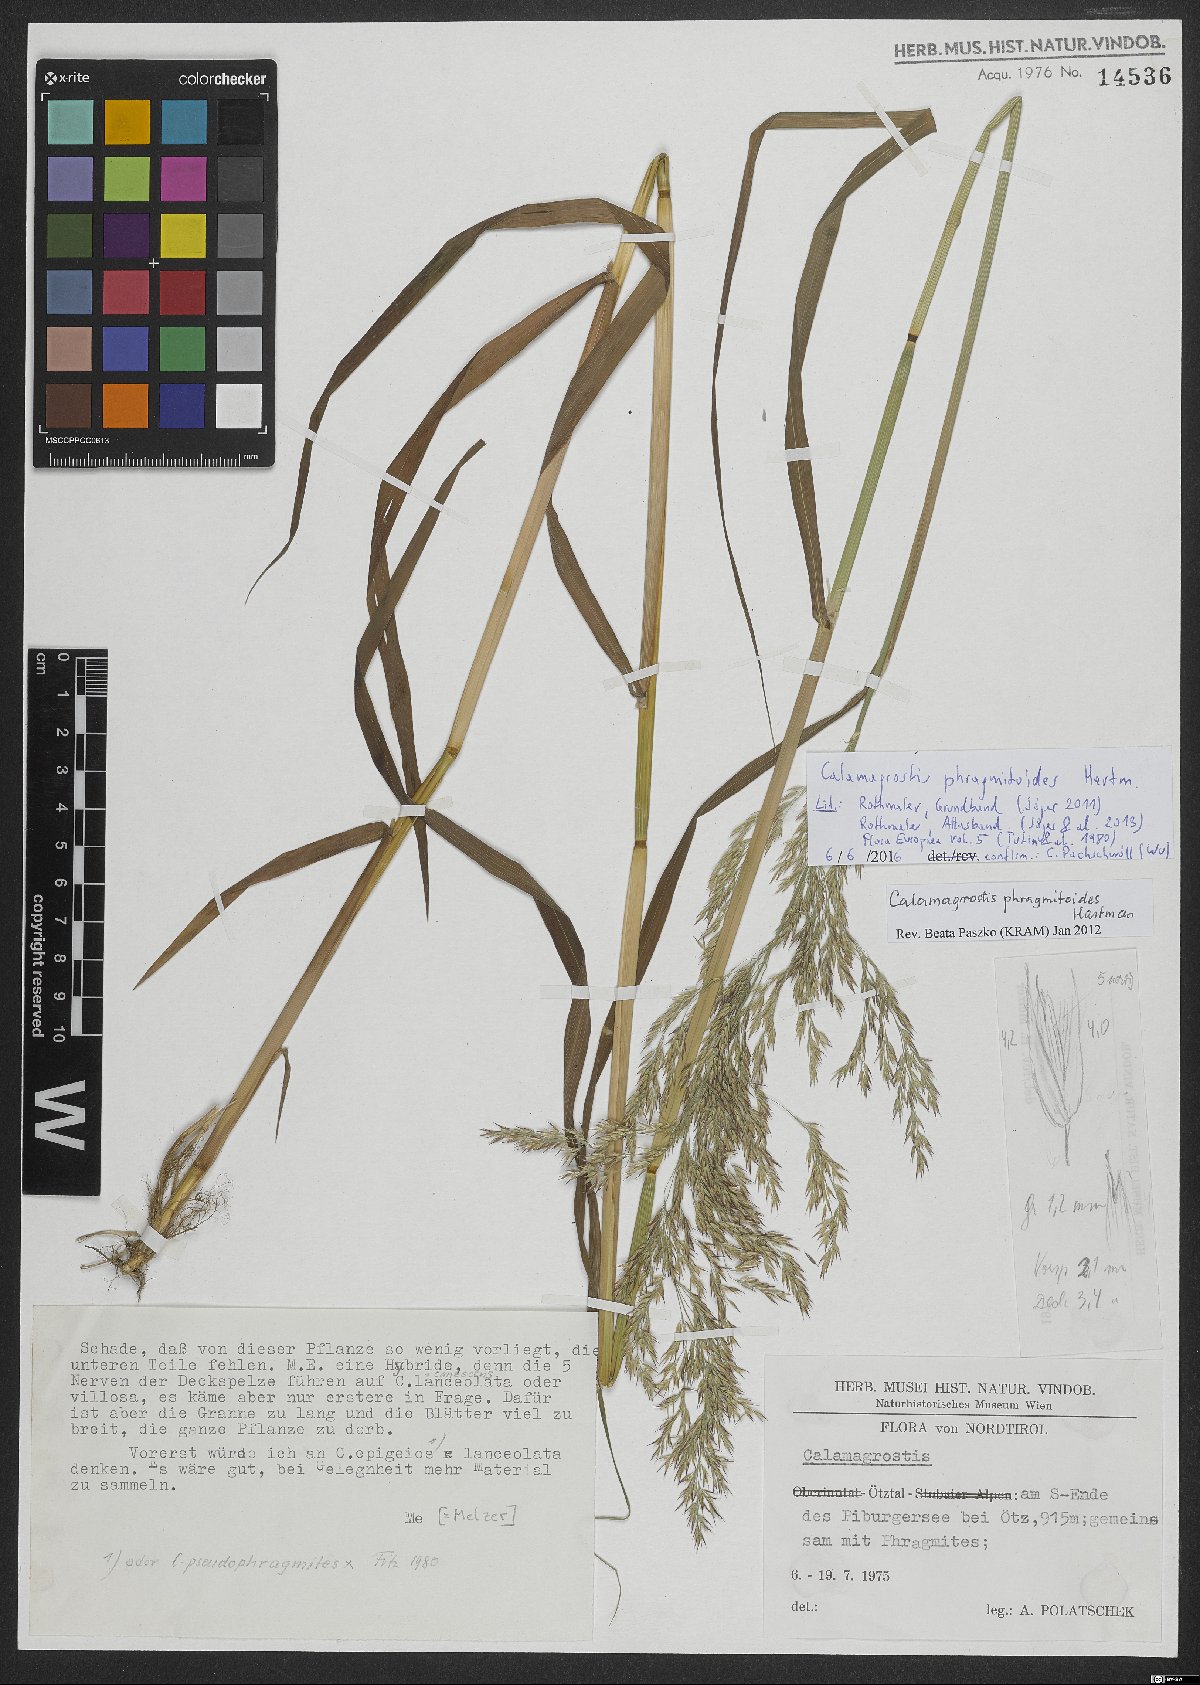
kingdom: Plantae
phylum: Tracheophyta
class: Liliopsida
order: Poales
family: Poaceae
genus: Calamagrostis
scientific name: Calamagrostis purpurea
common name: Scandinavian small-reed
